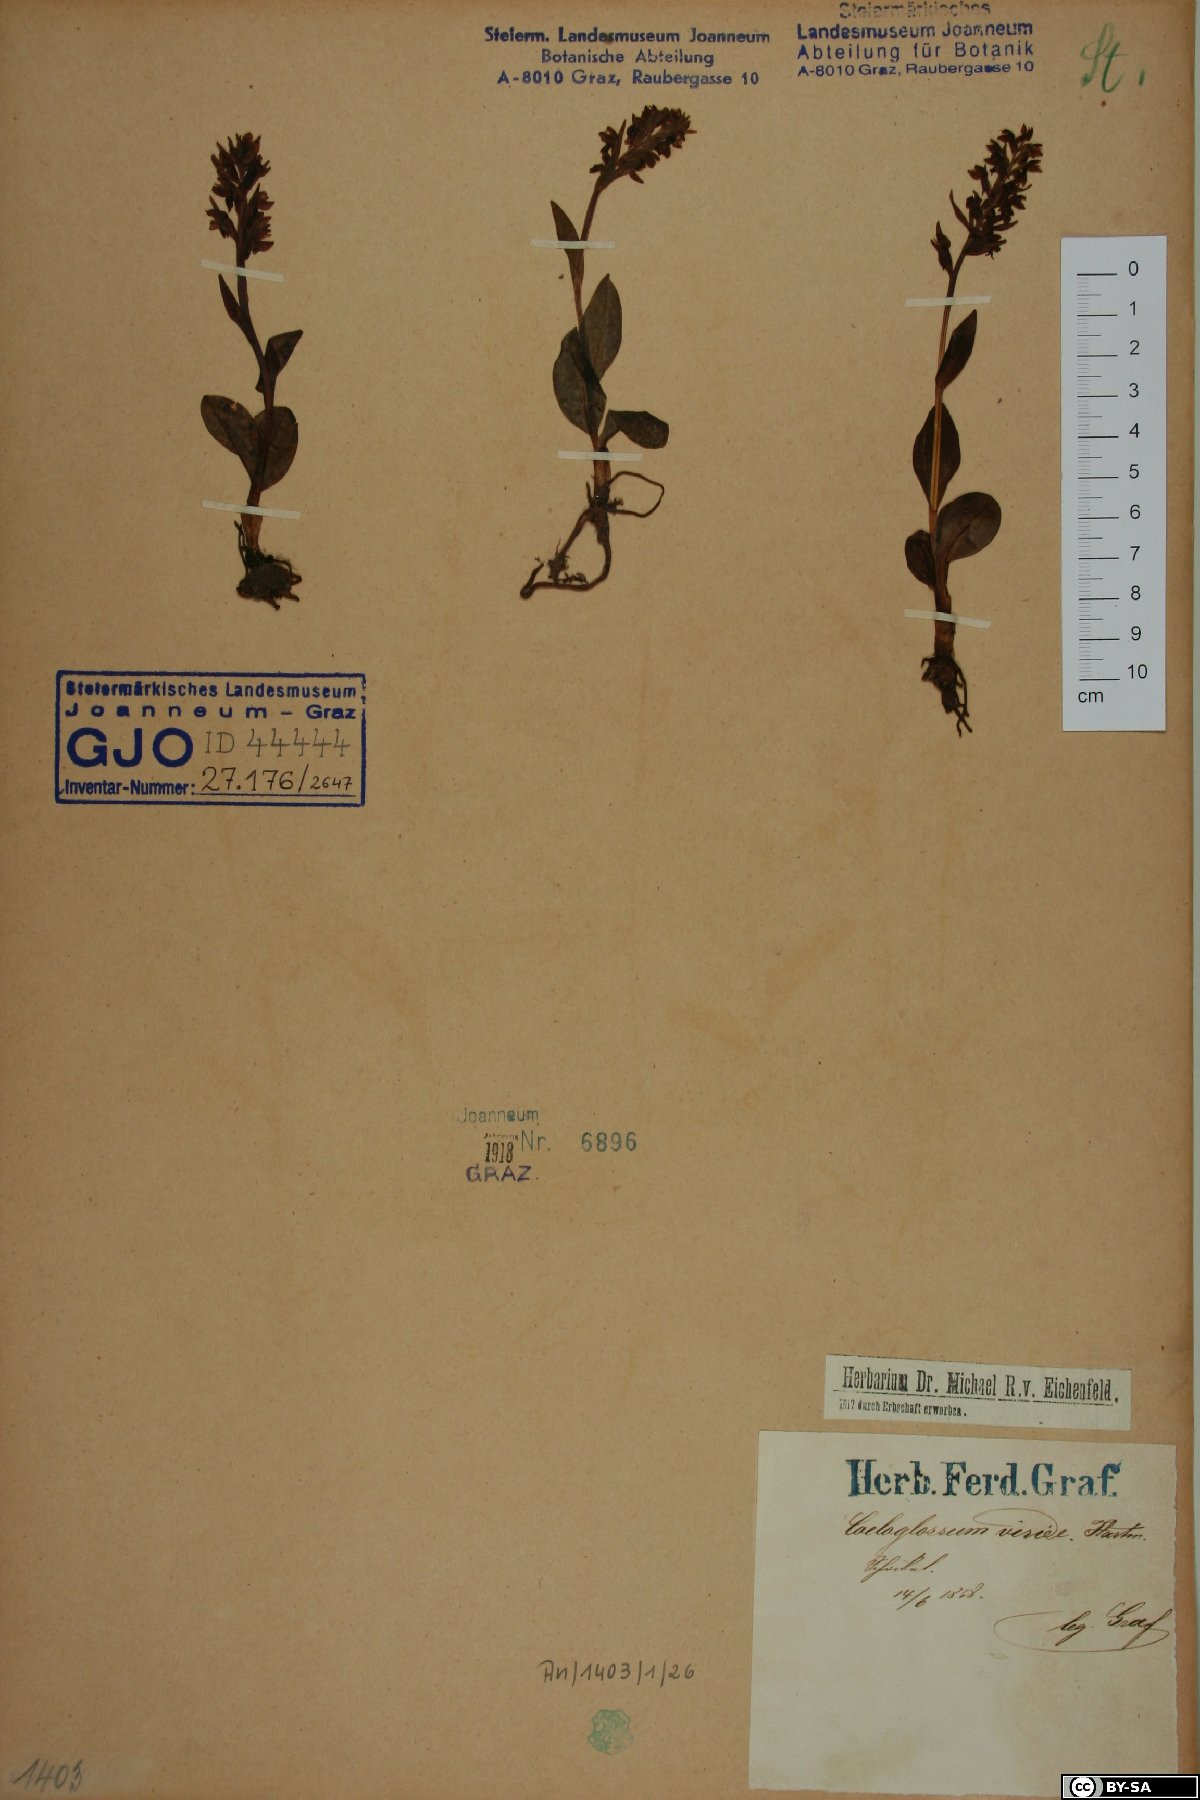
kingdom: Plantae
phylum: Tracheophyta
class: Liliopsida
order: Asparagales
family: Orchidaceae
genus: Dactylorhiza
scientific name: Dactylorhiza viridis
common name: Longbract frog orchid
